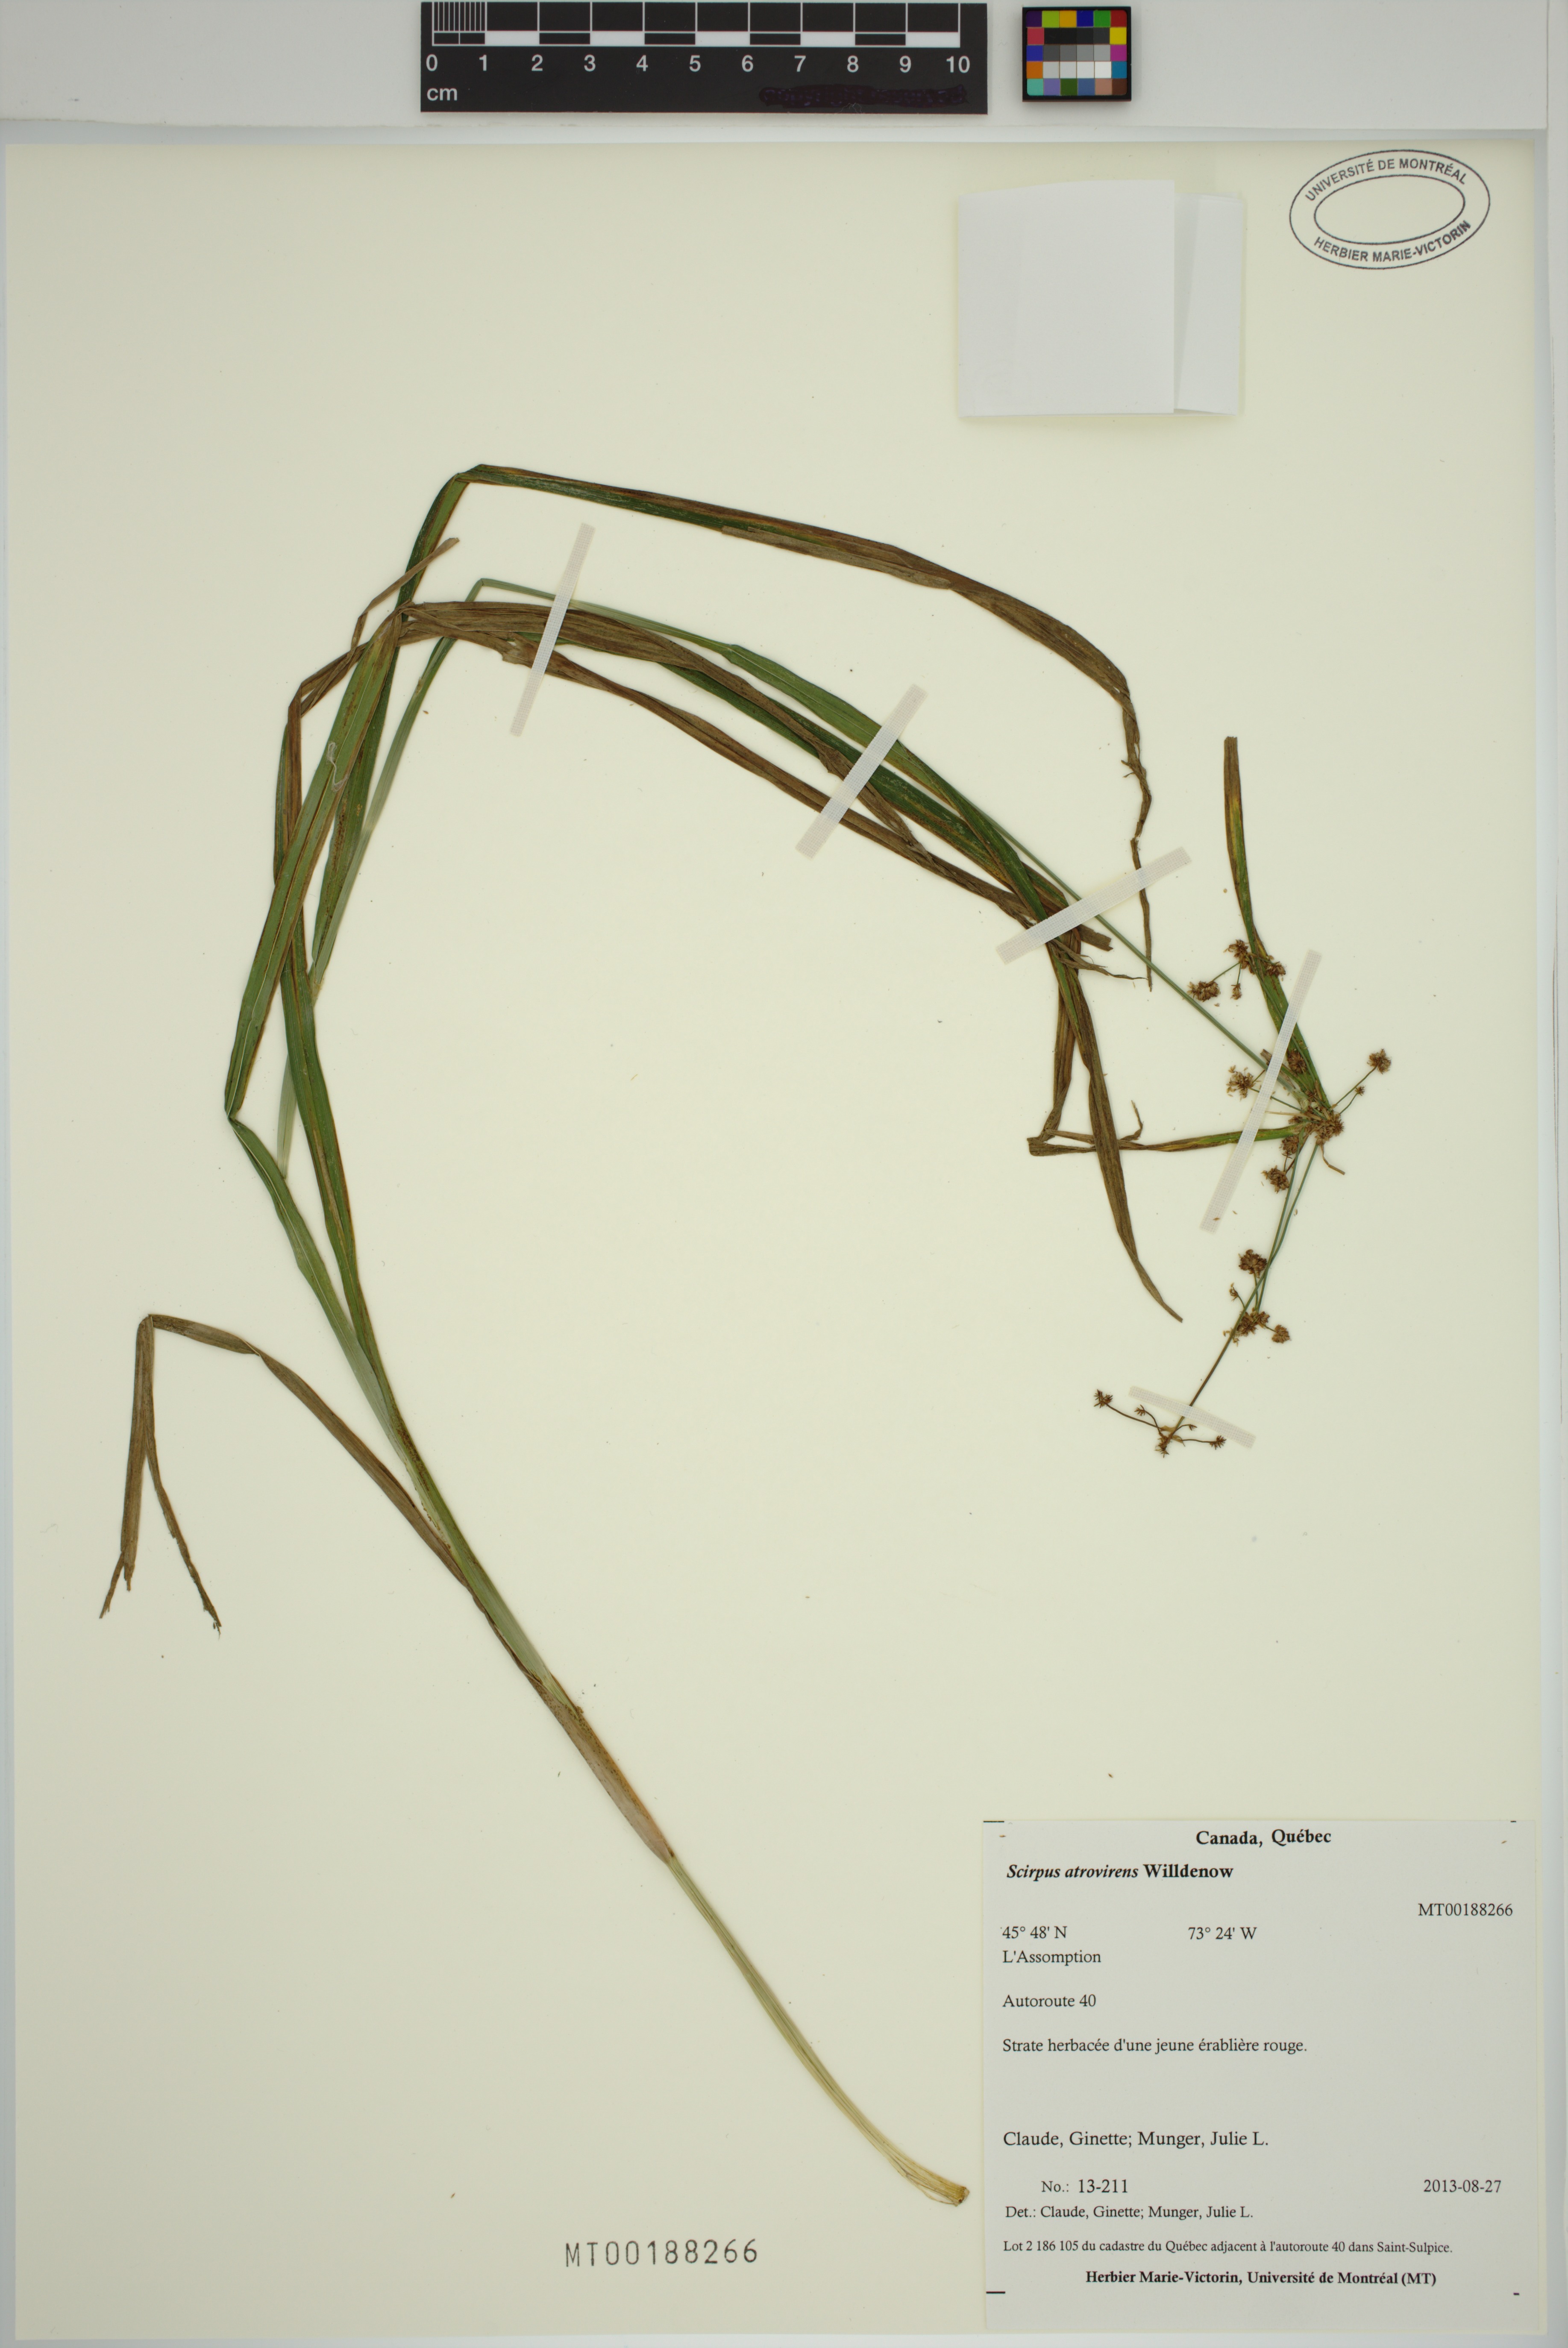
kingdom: Plantae
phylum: Tracheophyta
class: Liliopsida
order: Poales
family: Cyperaceae
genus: Scirpus
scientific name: Scirpus hattorianus
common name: Early dark-green bulrush
